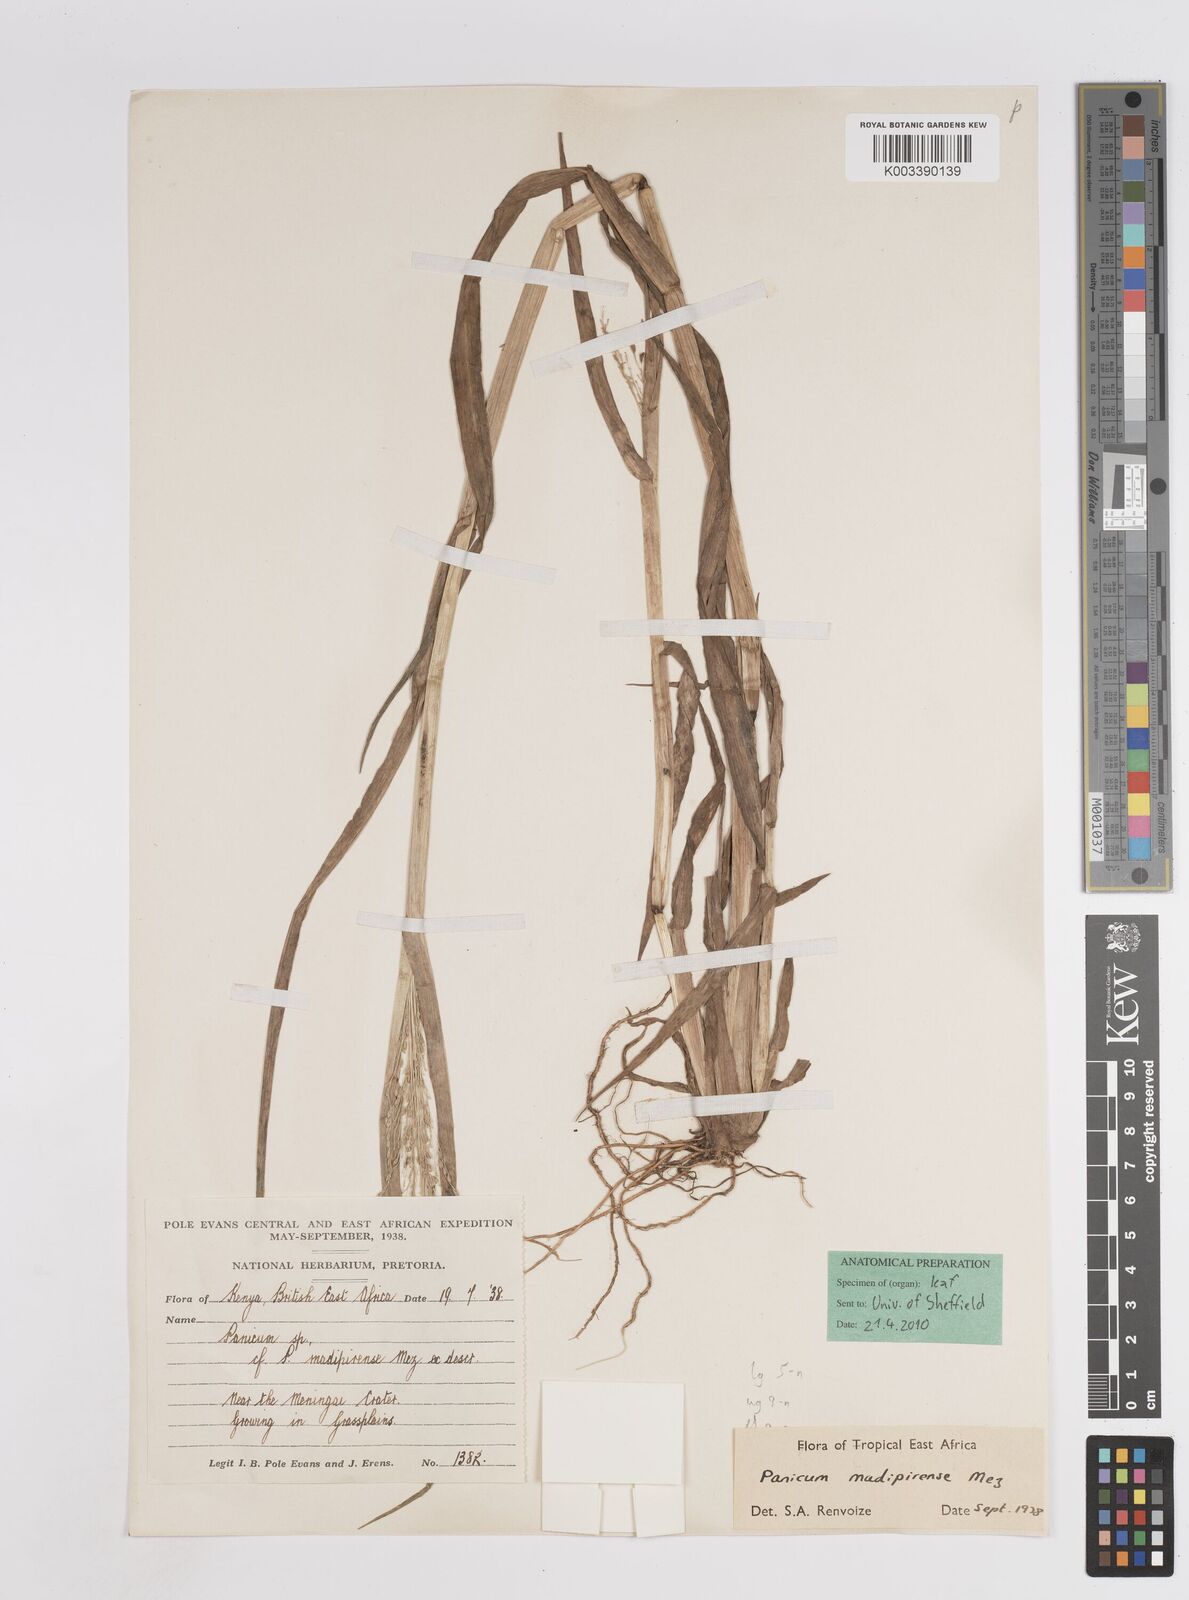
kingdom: Plantae
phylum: Tracheophyta
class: Liliopsida
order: Poales
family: Poaceae
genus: Panicum
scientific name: Panicum madipirense
